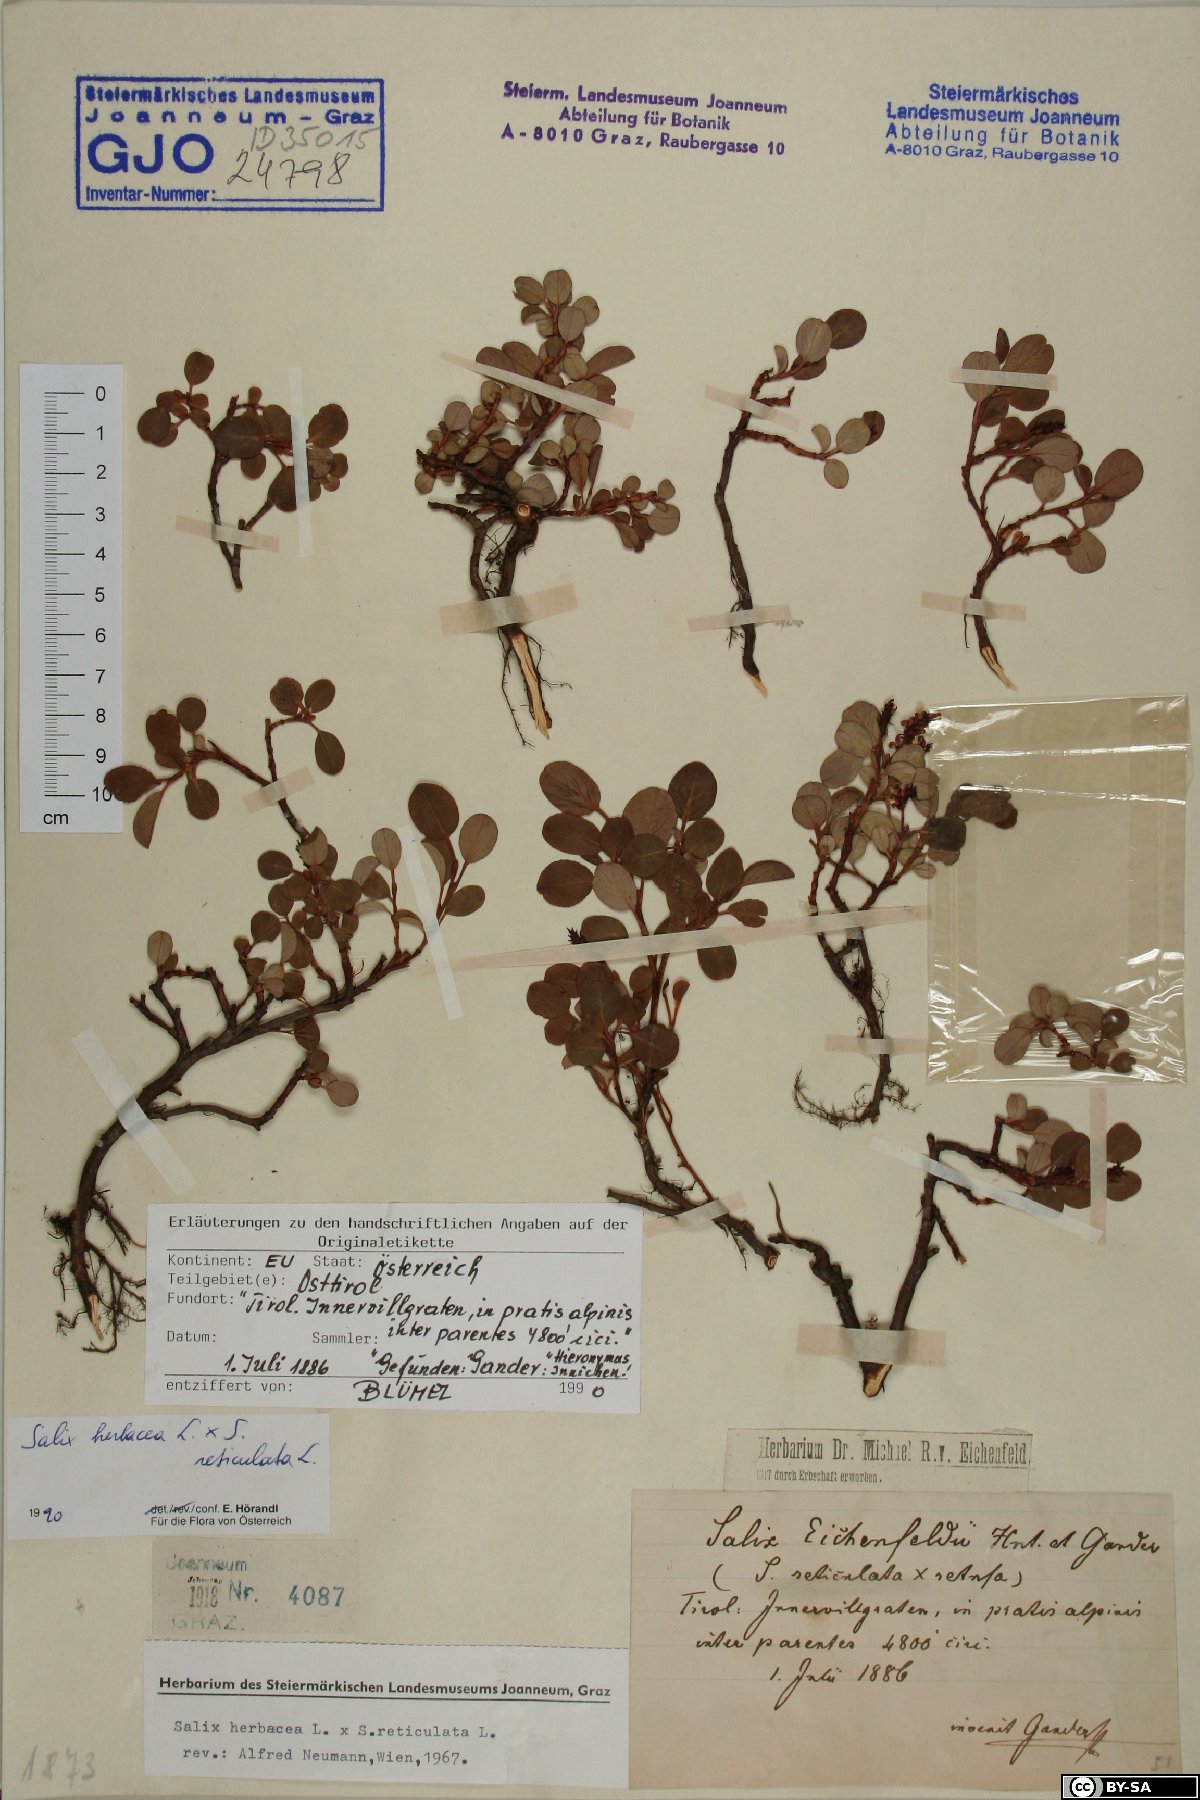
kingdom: Plantae
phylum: Tracheophyta
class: Magnoliopsida
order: Malpighiales
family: Salicaceae
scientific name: Salicaceae
